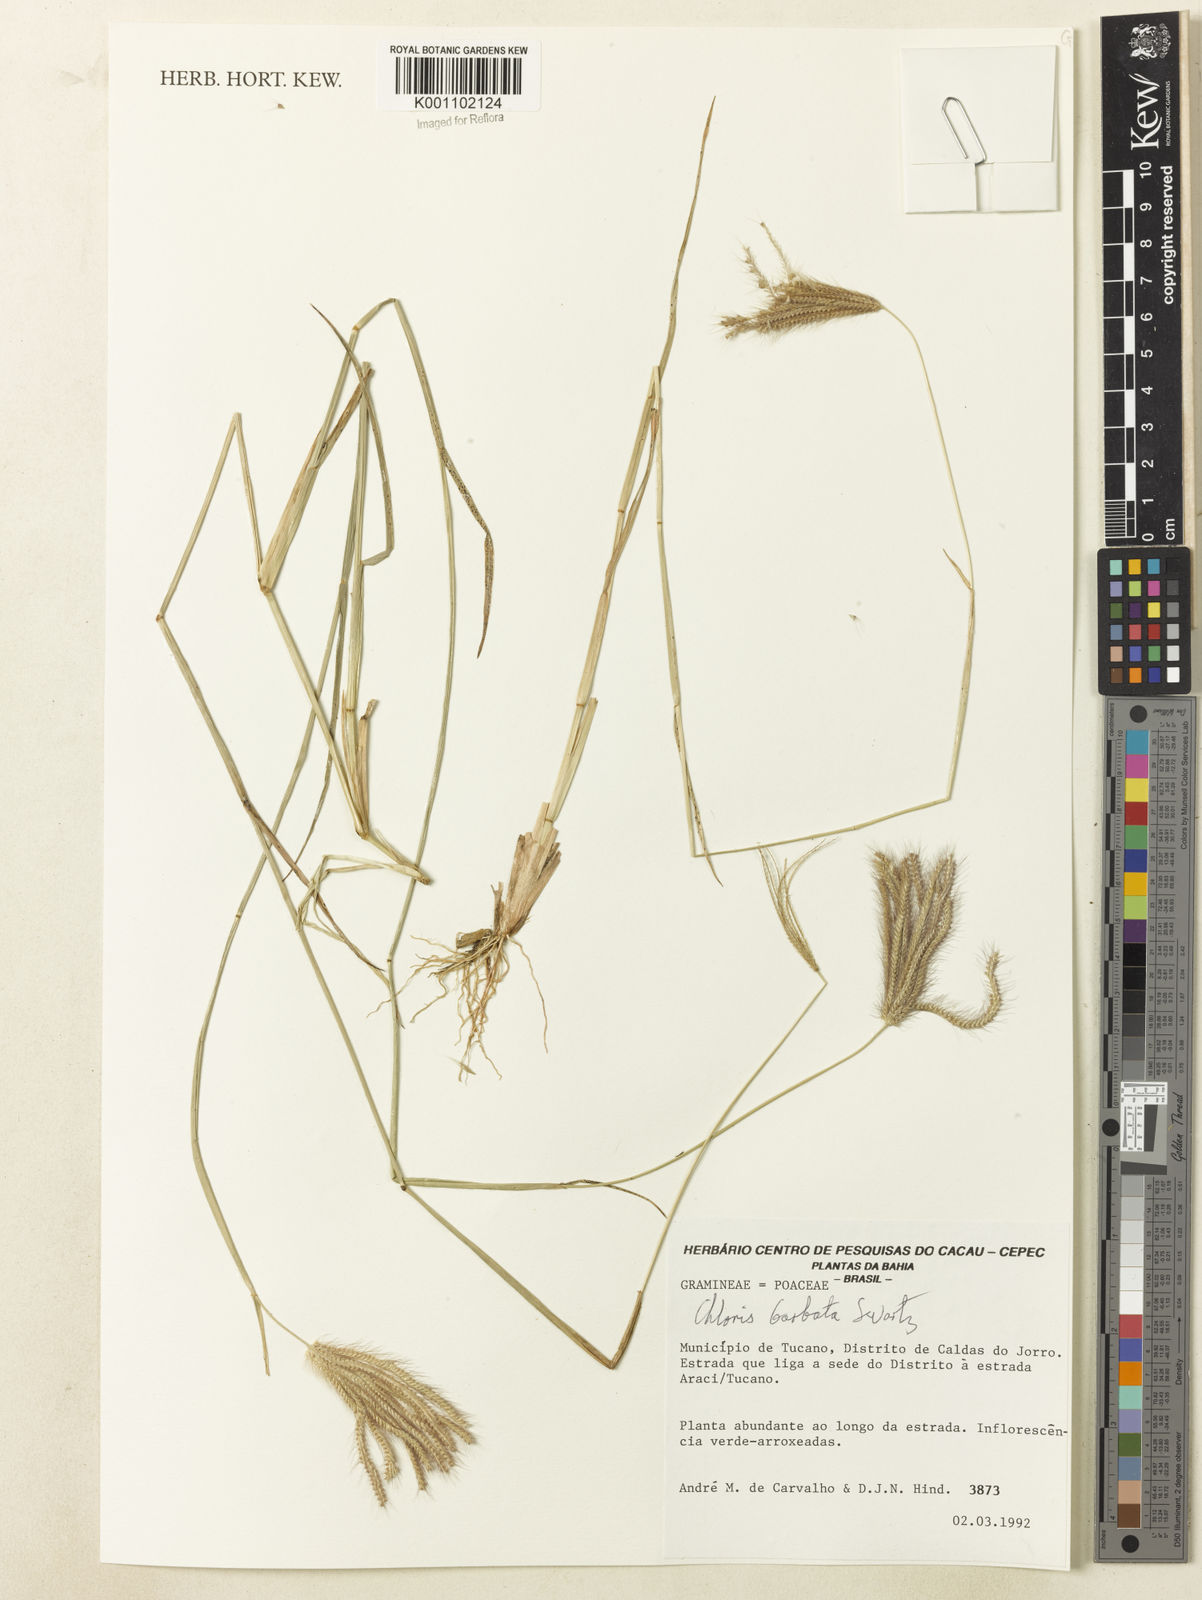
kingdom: Plantae
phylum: Tracheophyta
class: Liliopsida
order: Poales
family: Poaceae
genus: Chloris
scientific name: Chloris barbata
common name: Swollen fingergrass
